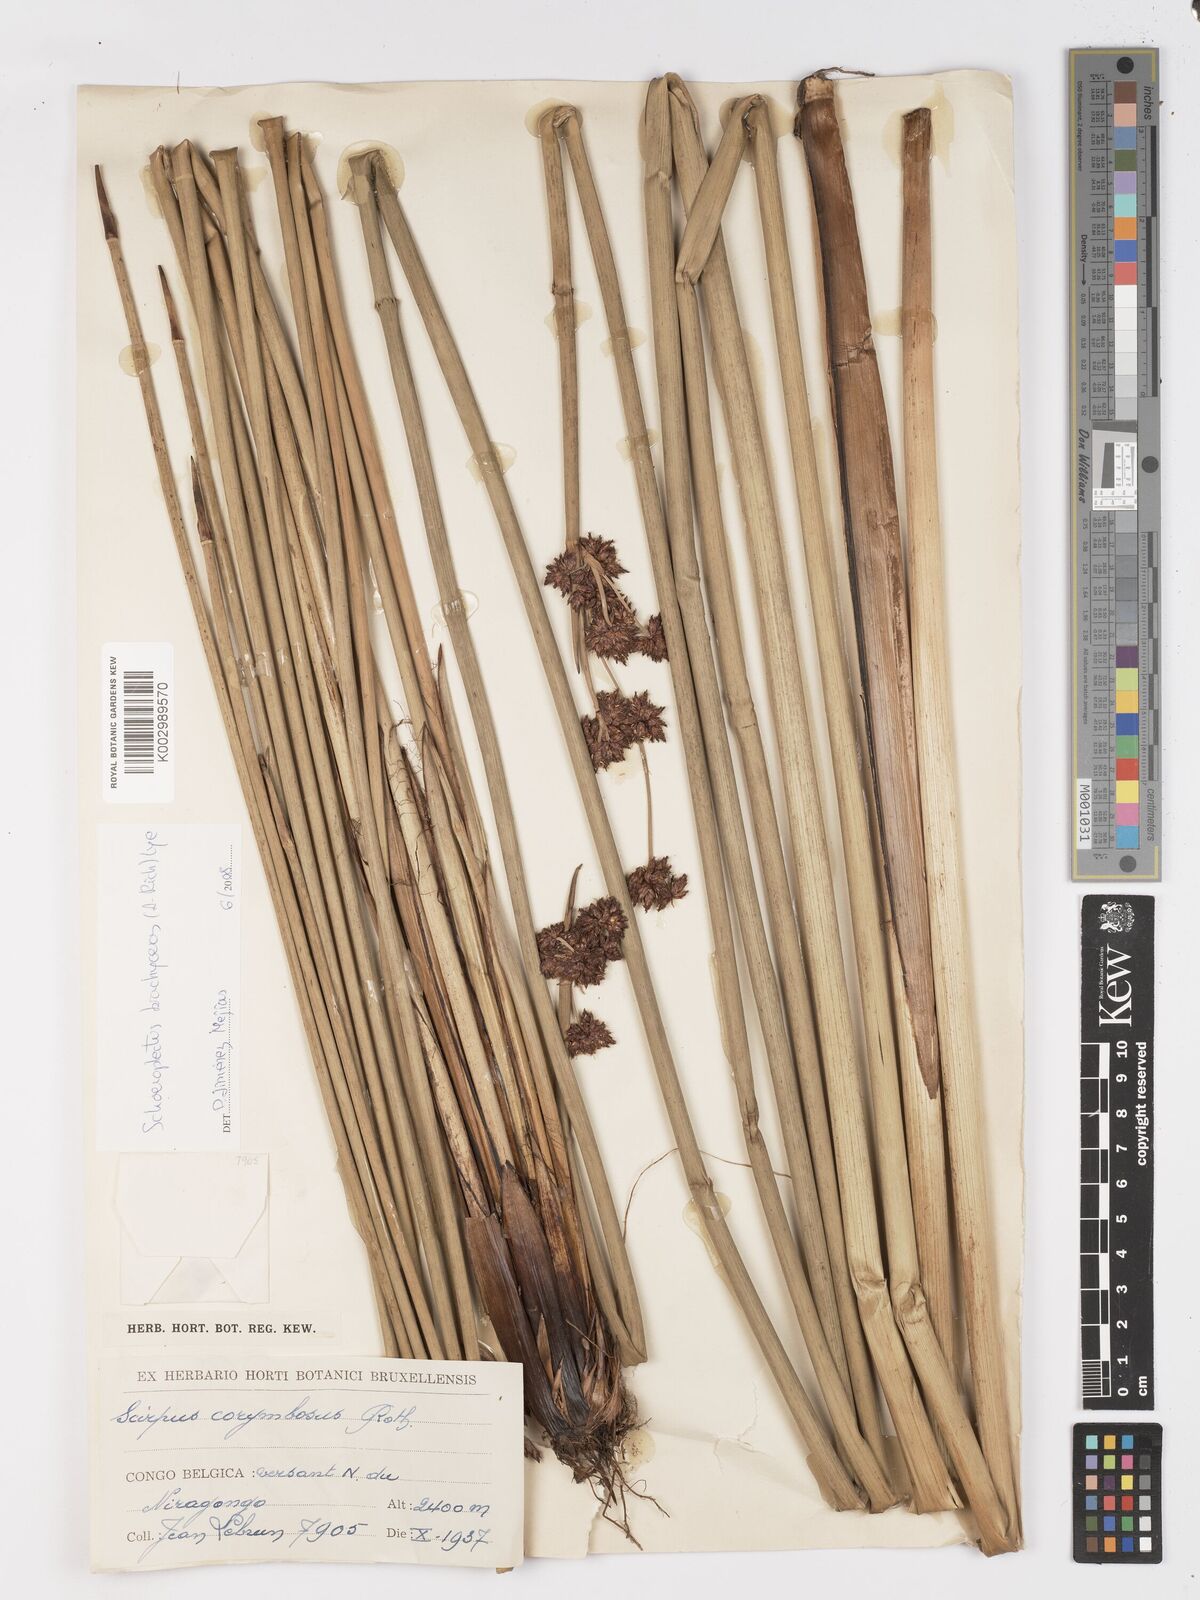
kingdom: Plantae
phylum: Tracheophyta
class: Liliopsida
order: Poales
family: Cyperaceae
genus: Schoenoplectiella
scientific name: Schoenoplectiella corymbosa
